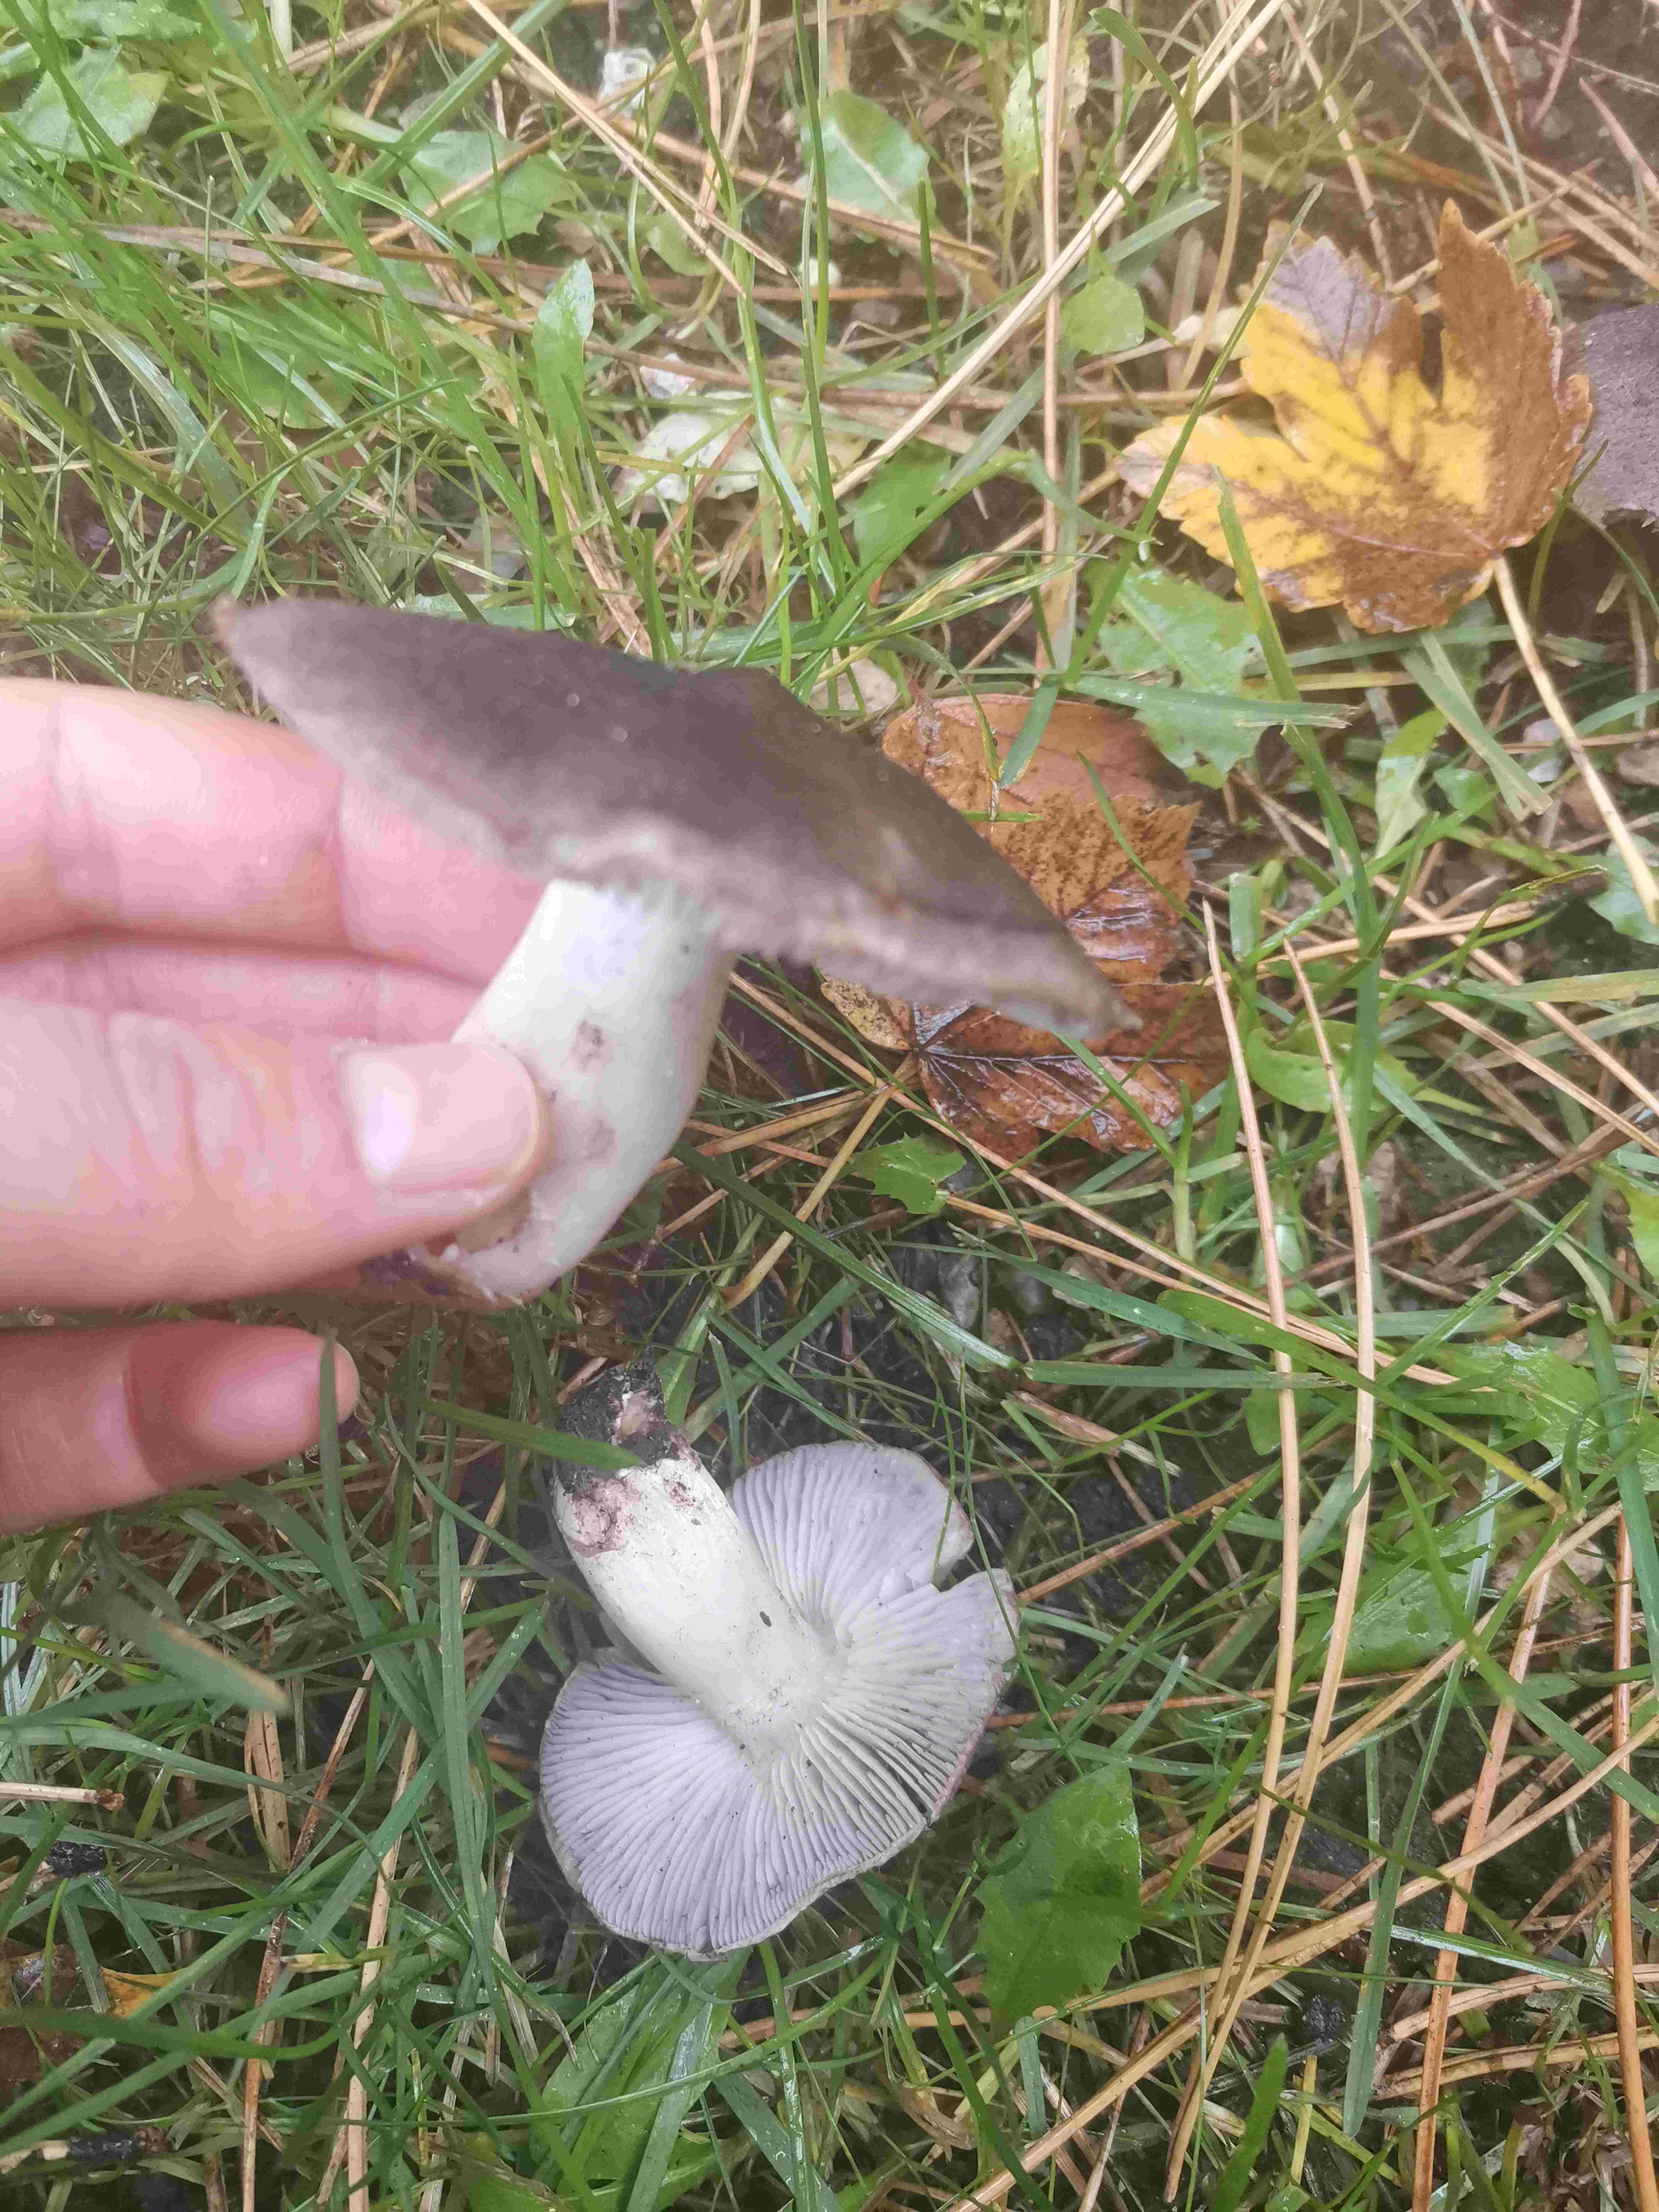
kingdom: Fungi
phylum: Basidiomycota
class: Agaricomycetes
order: Agaricales
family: Tricholomataceae
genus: Tricholoma
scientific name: Tricholoma terreum
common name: jordfarvet ridderhat
